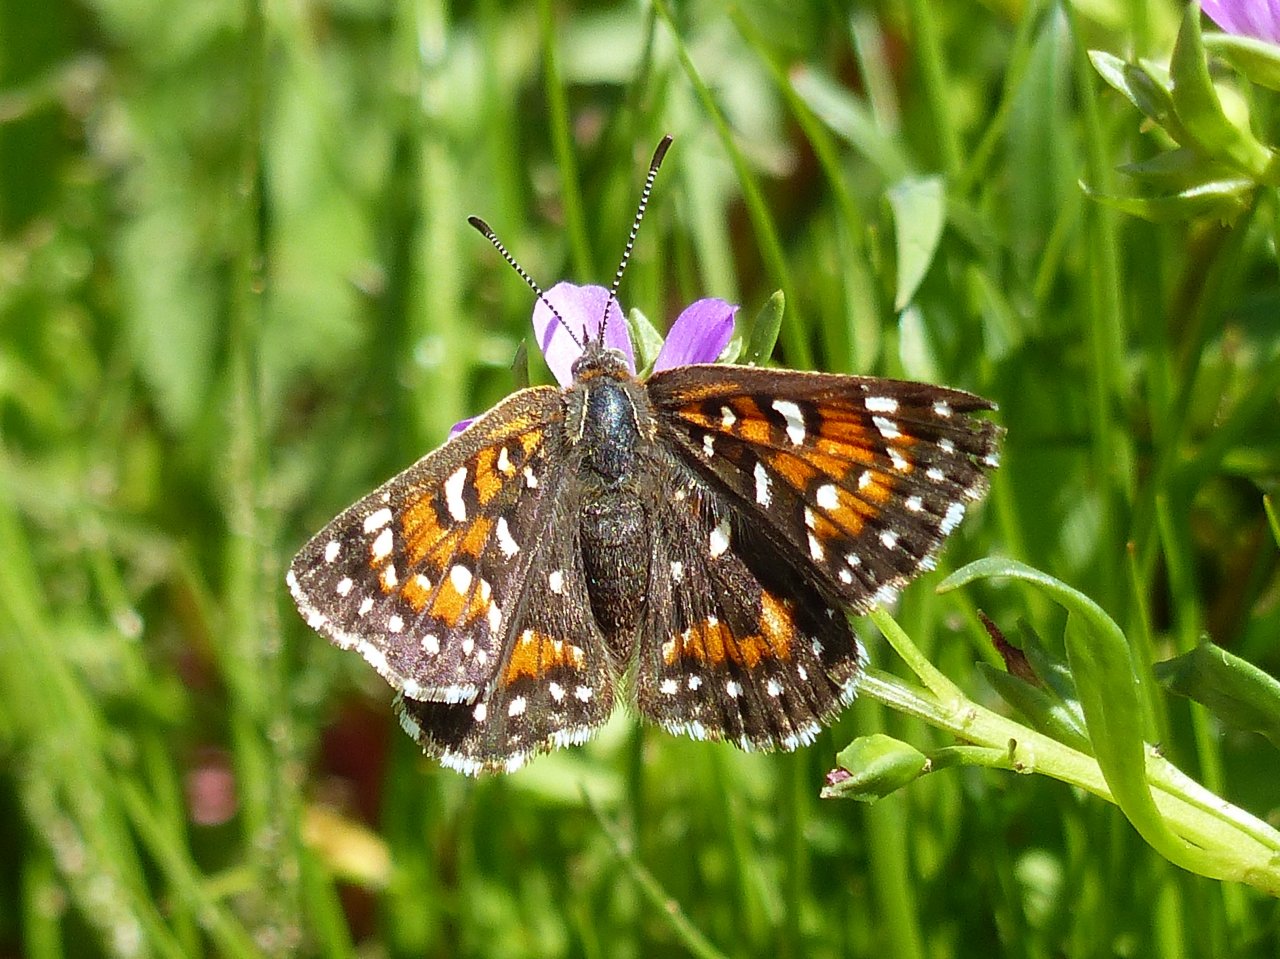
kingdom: Animalia
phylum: Arthropoda
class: Insecta
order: Lepidoptera
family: Riodinidae
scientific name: Riodinidae
